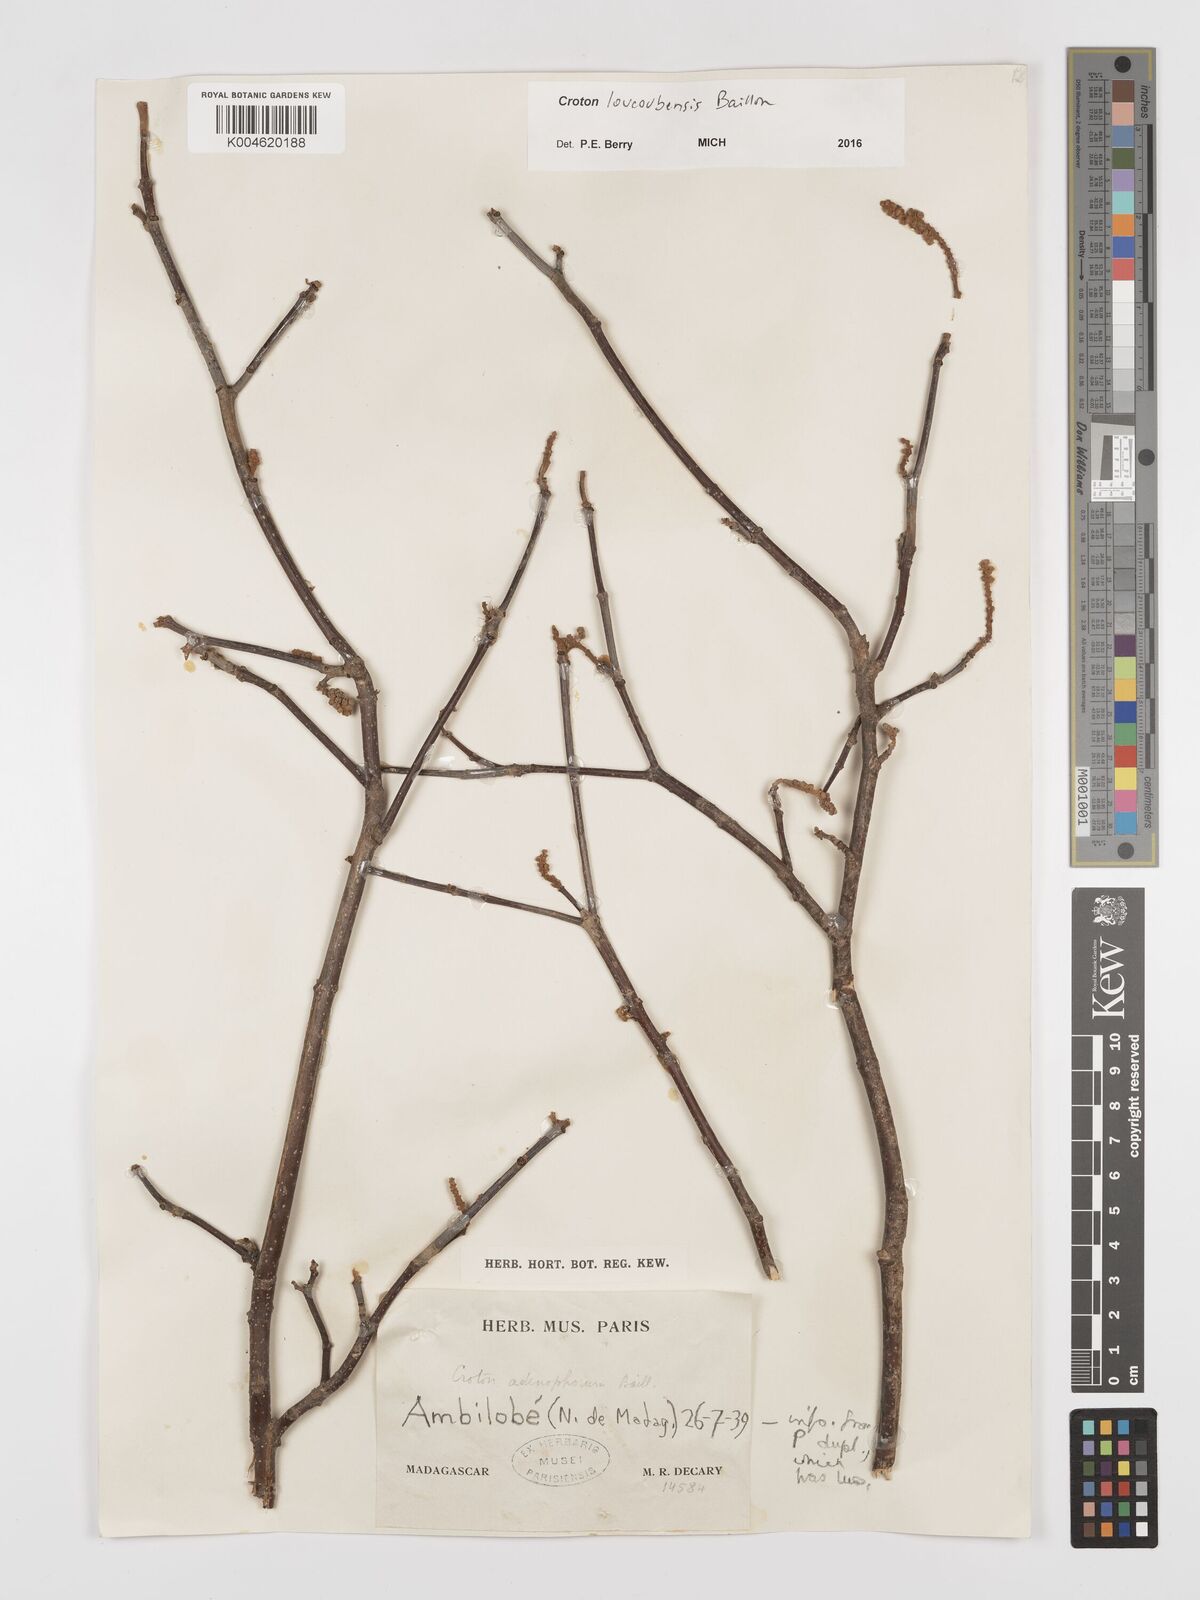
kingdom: Plantae
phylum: Tracheophyta
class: Magnoliopsida
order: Malpighiales
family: Euphorbiaceae
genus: Croton
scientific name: Croton loucoubensis
